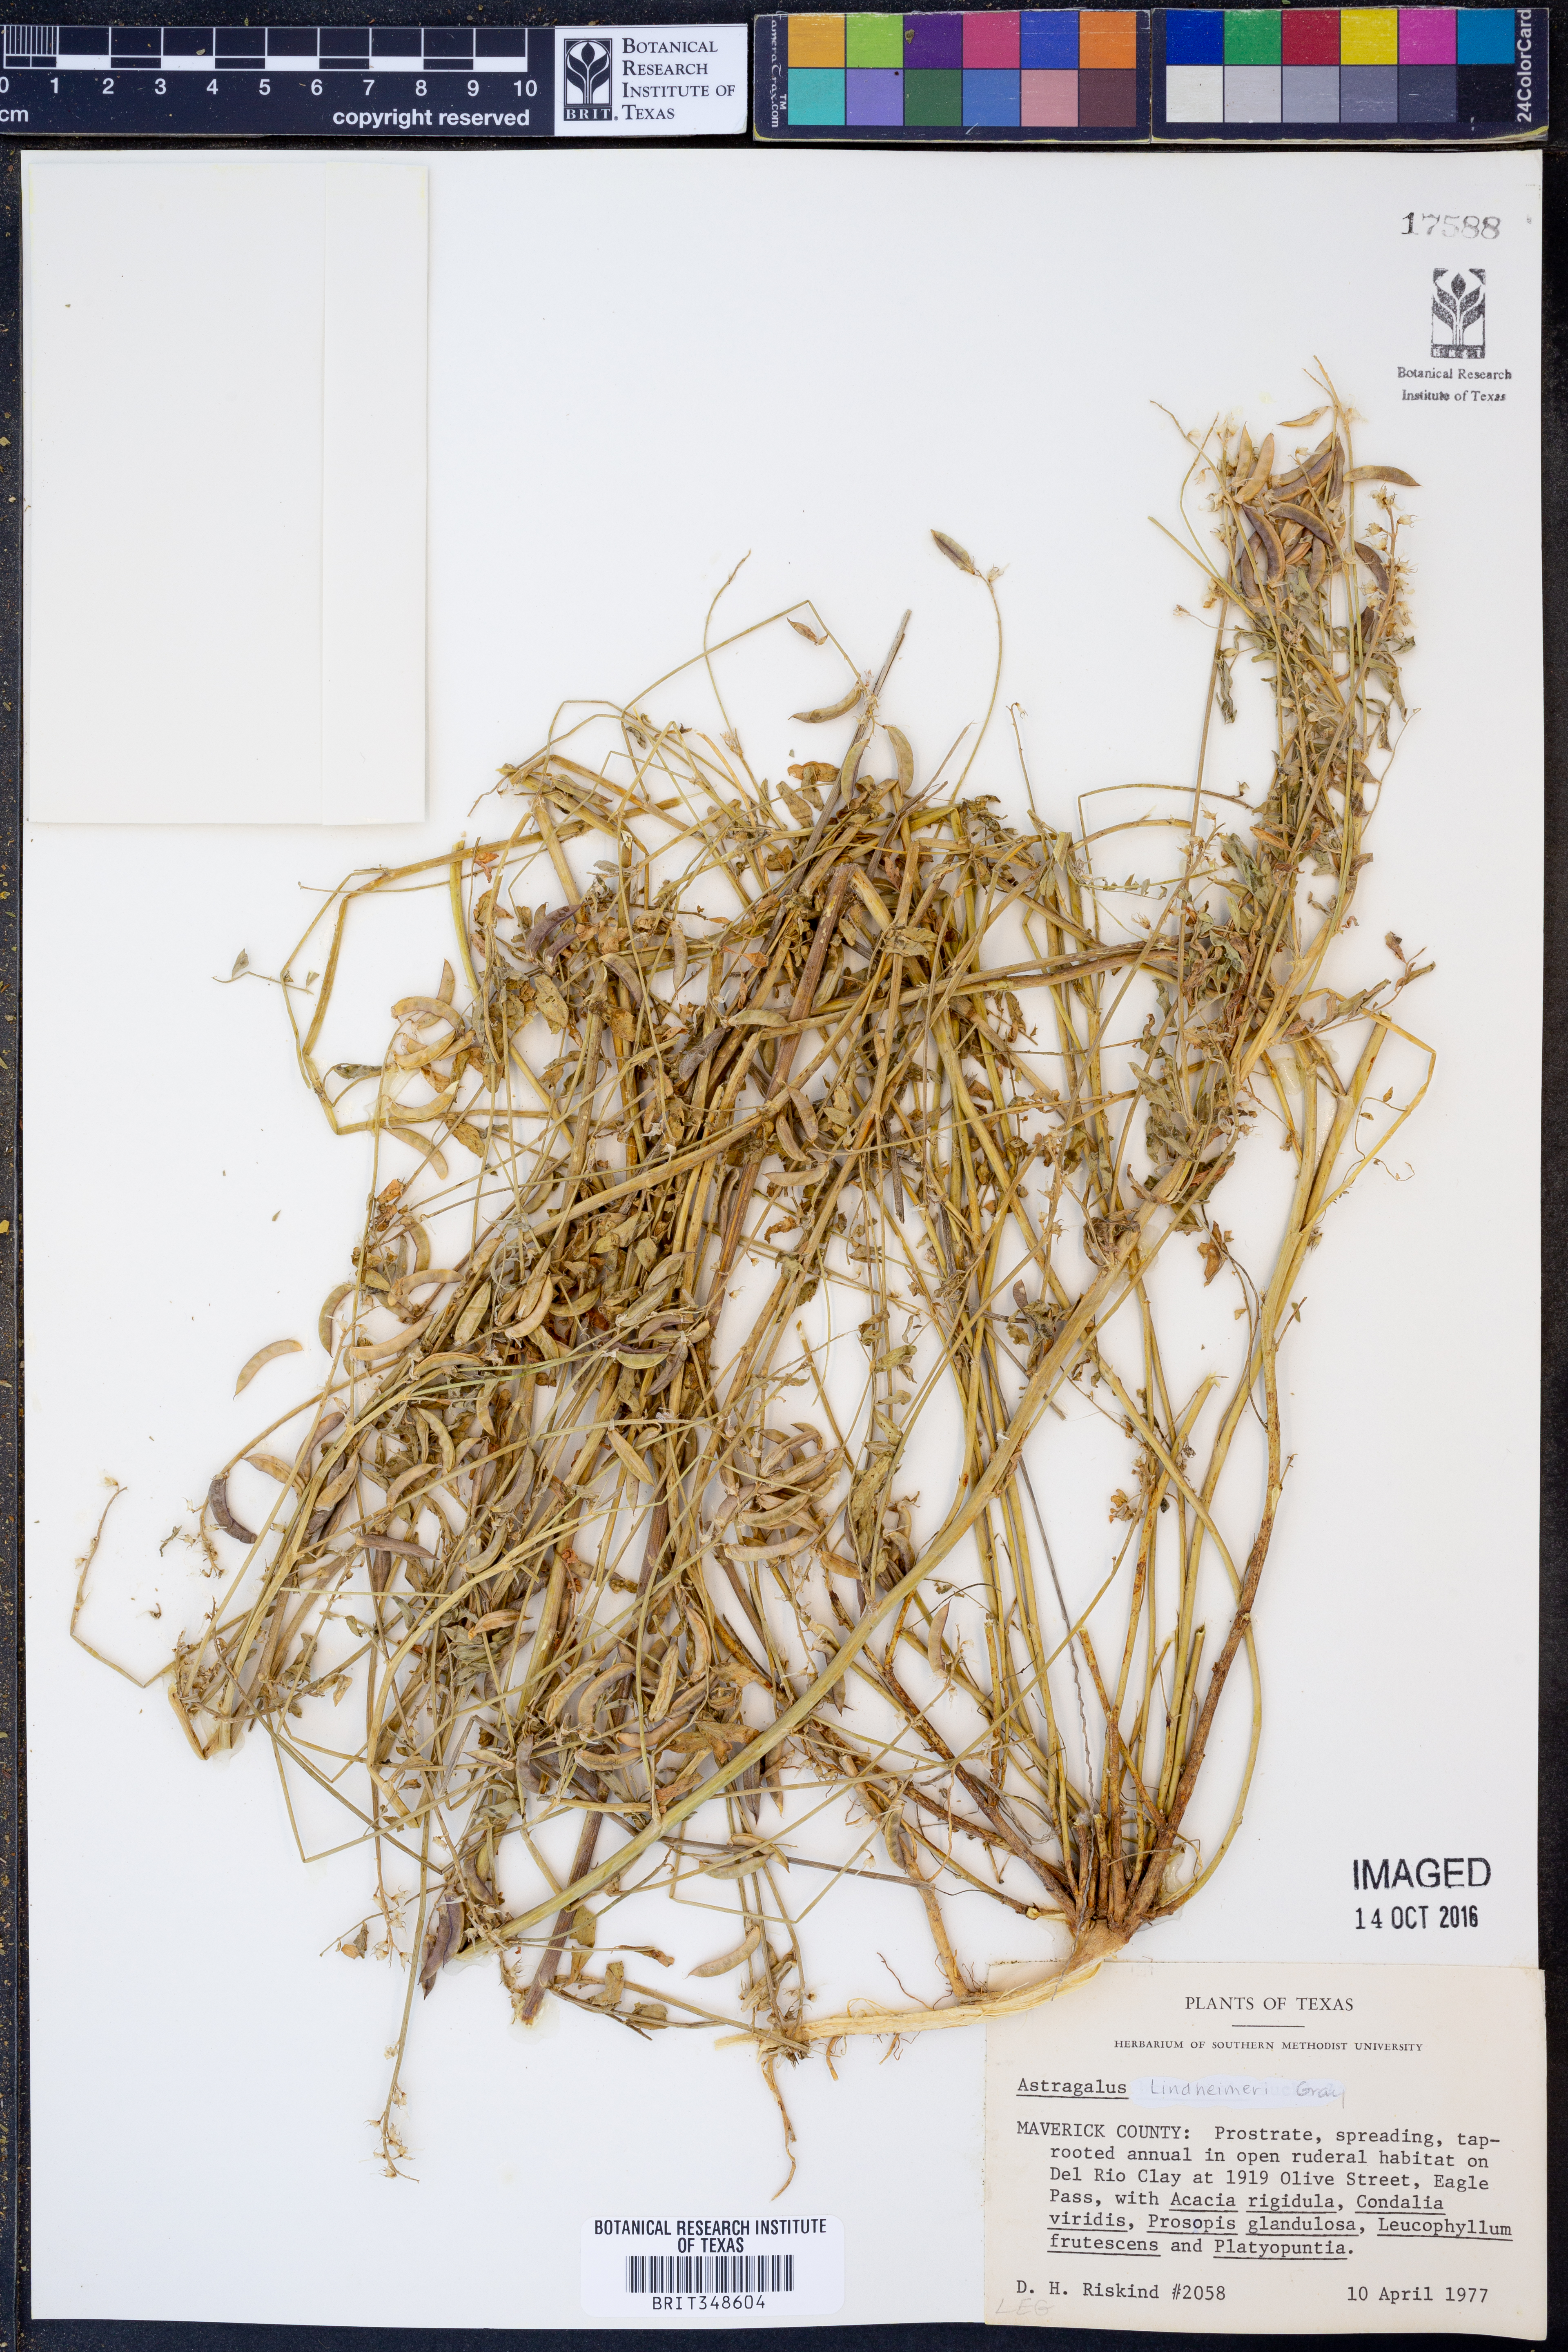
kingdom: Plantae
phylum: Tracheophyta
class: Magnoliopsida
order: Fabales
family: Fabaceae
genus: Astragalus
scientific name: Astragalus lindheimeri
